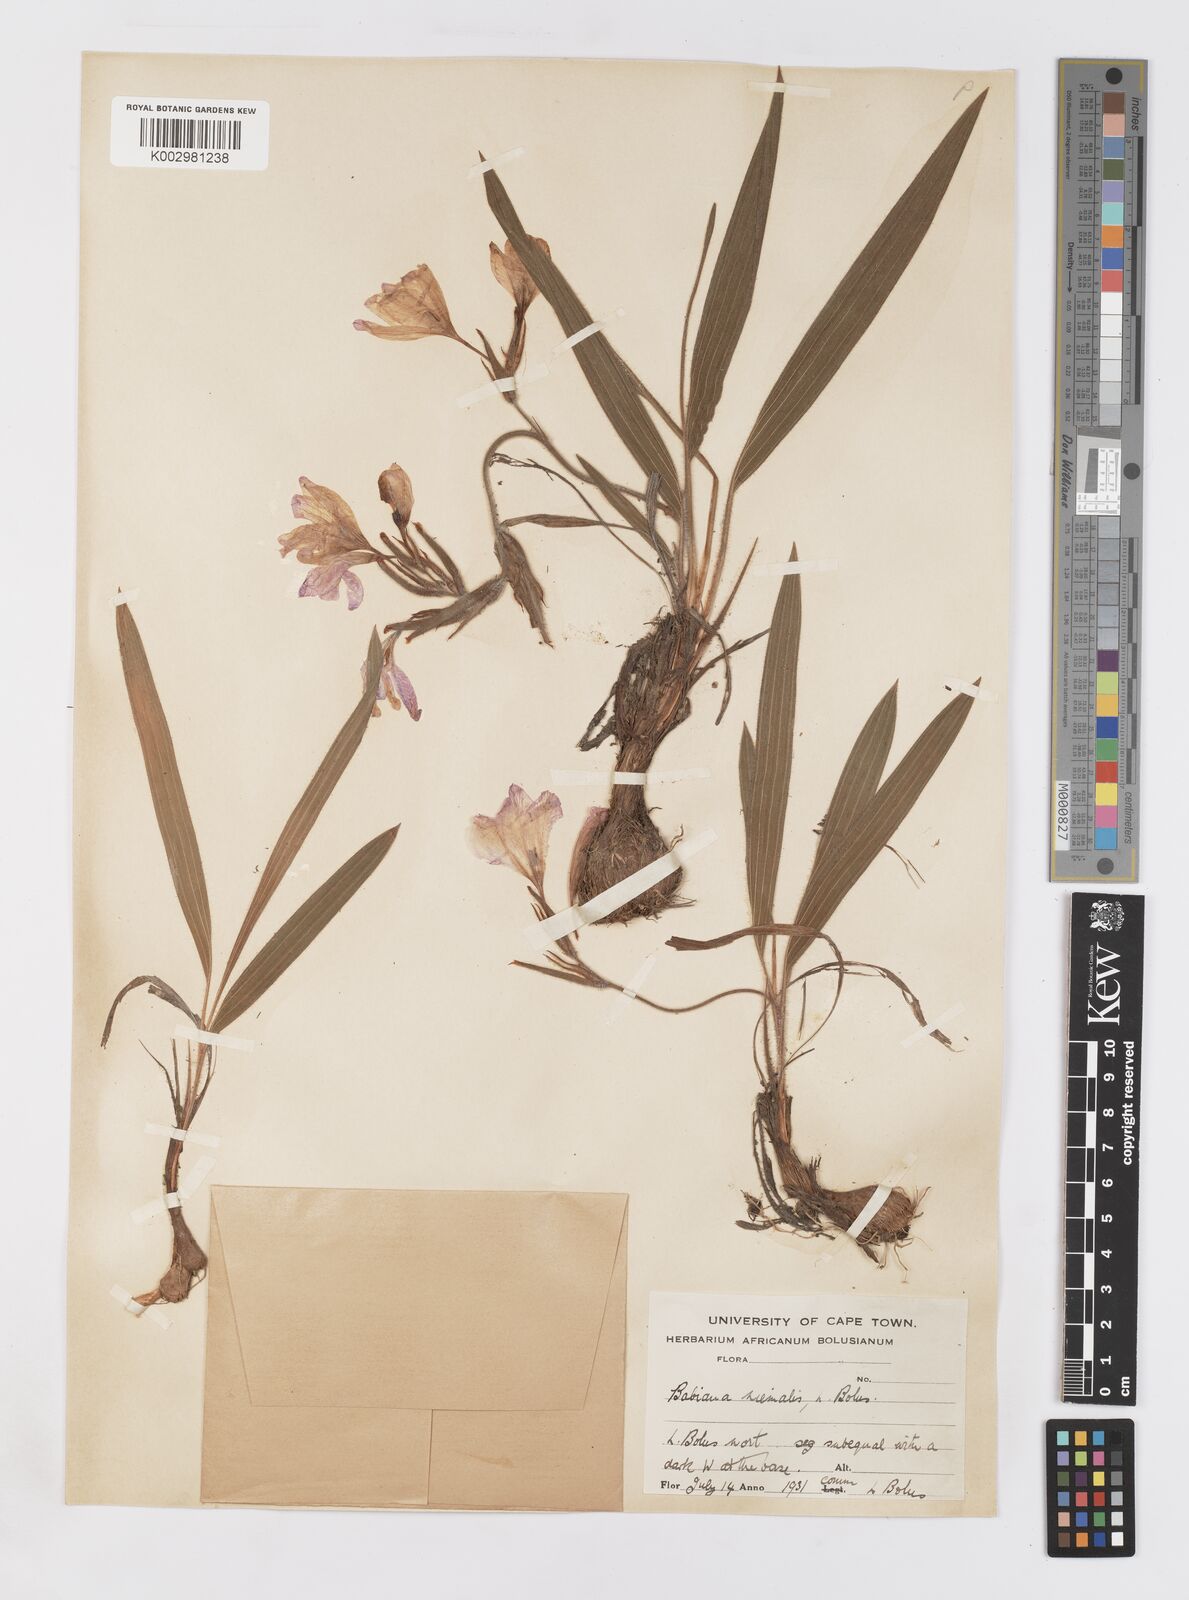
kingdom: Plantae
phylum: Tracheophyta
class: Liliopsida
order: Asparagales
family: Iridaceae
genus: Babiana
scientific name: Babiana villosula
